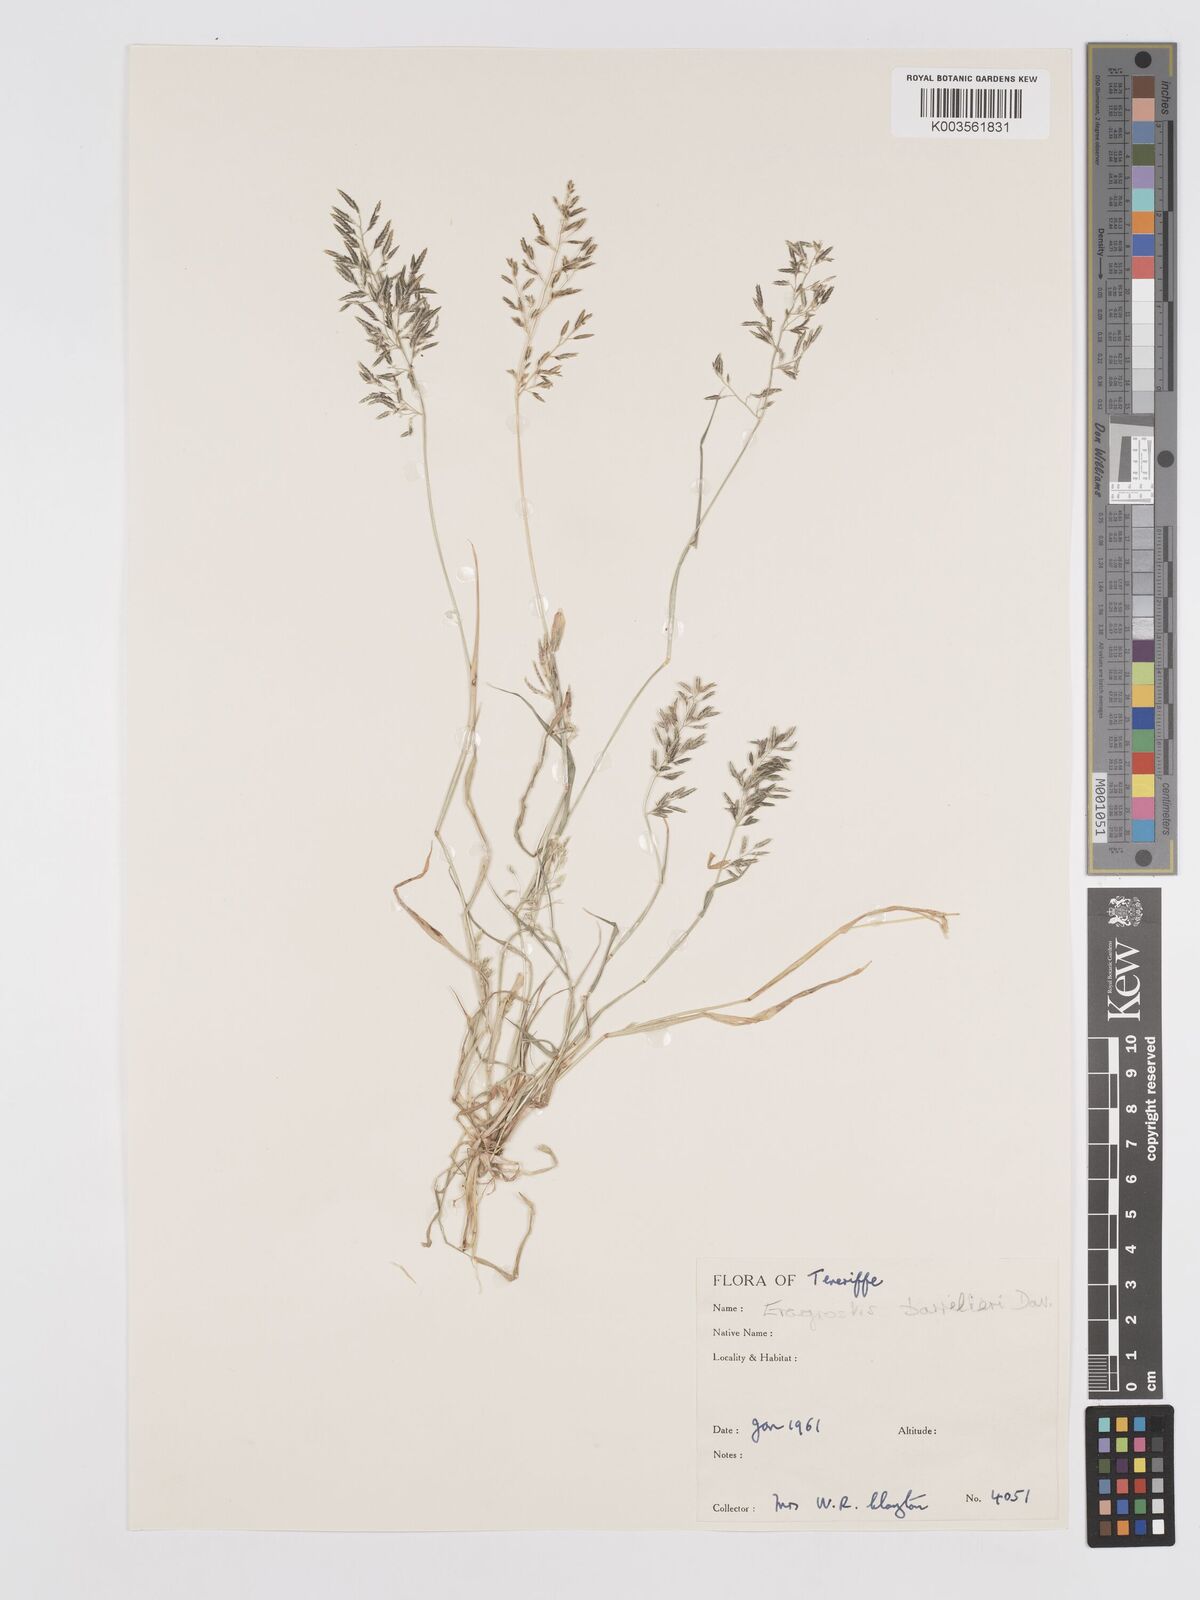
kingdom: Plantae
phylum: Tracheophyta
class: Liliopsida
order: Poales
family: Poaceae
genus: Eragrostis
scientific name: Eragrostis barrelieri
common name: Mediterranean lovegrass
